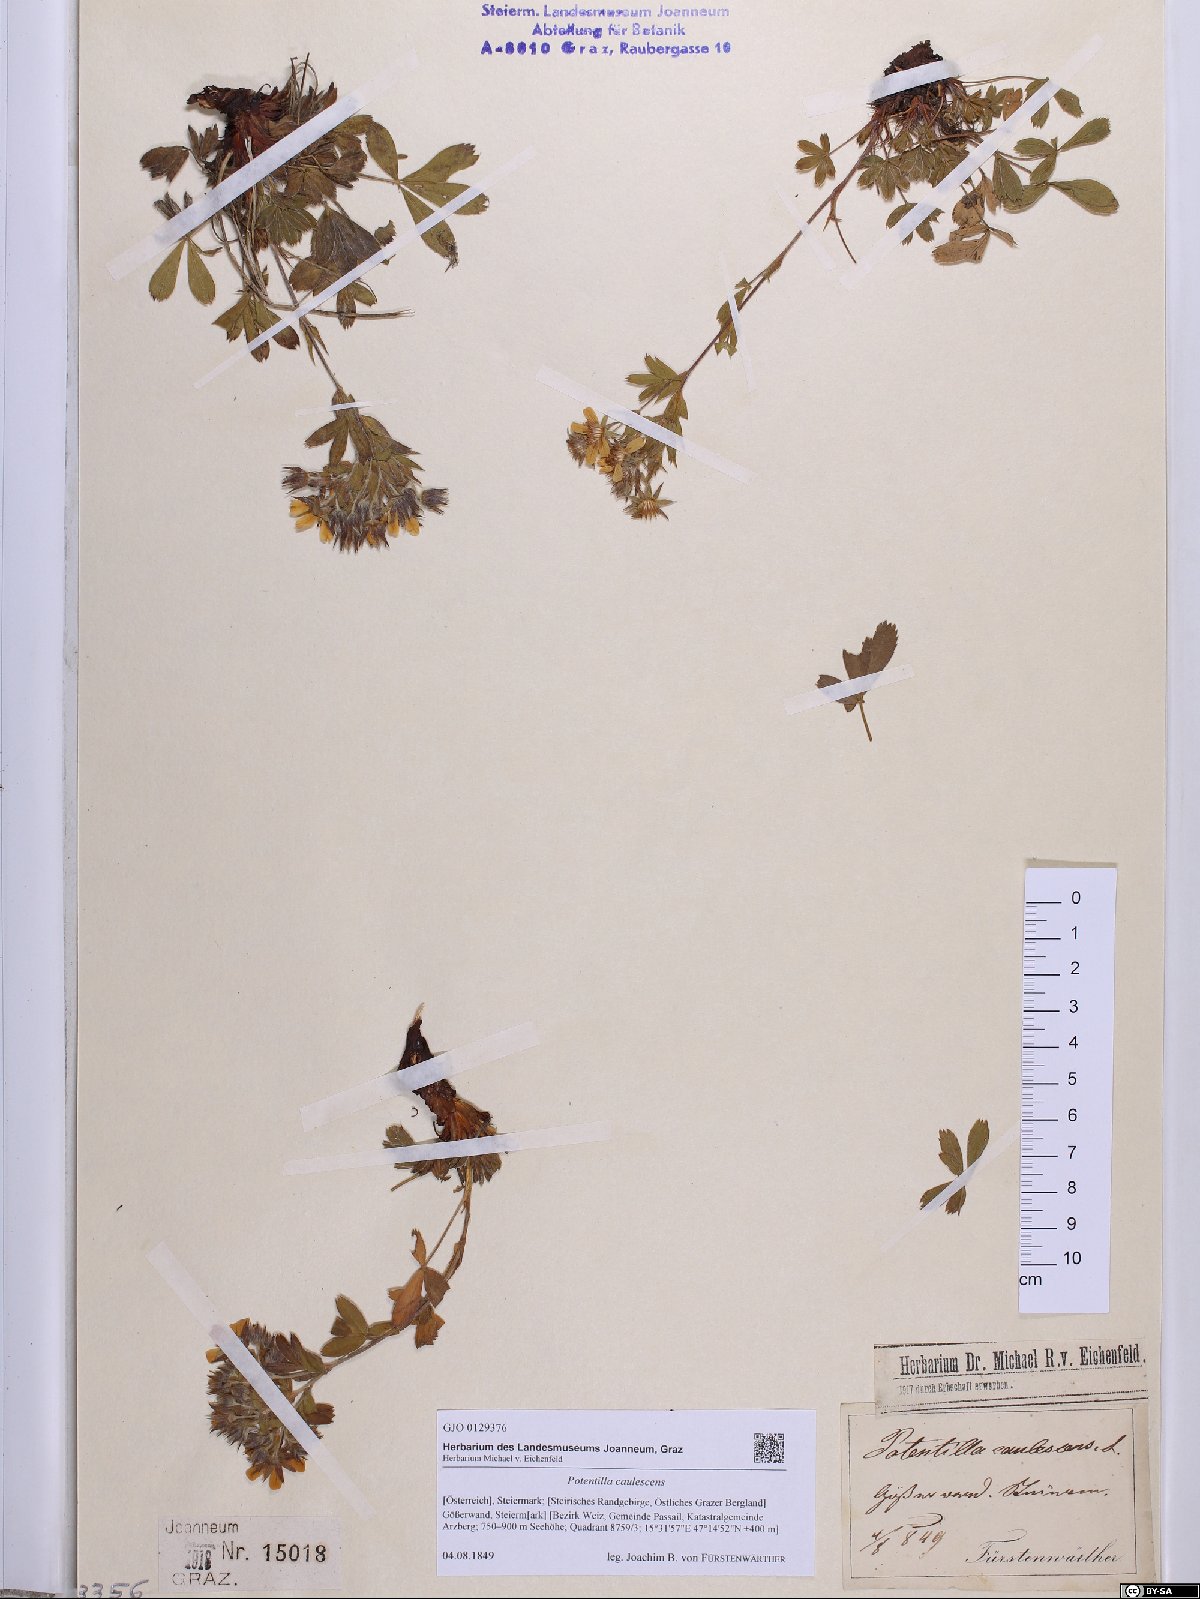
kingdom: Plantae
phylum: Tracheophyta
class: Magnoliopsida
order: Rosales
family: Rosaceae
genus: Potentilla
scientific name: Potentilla caulescens
